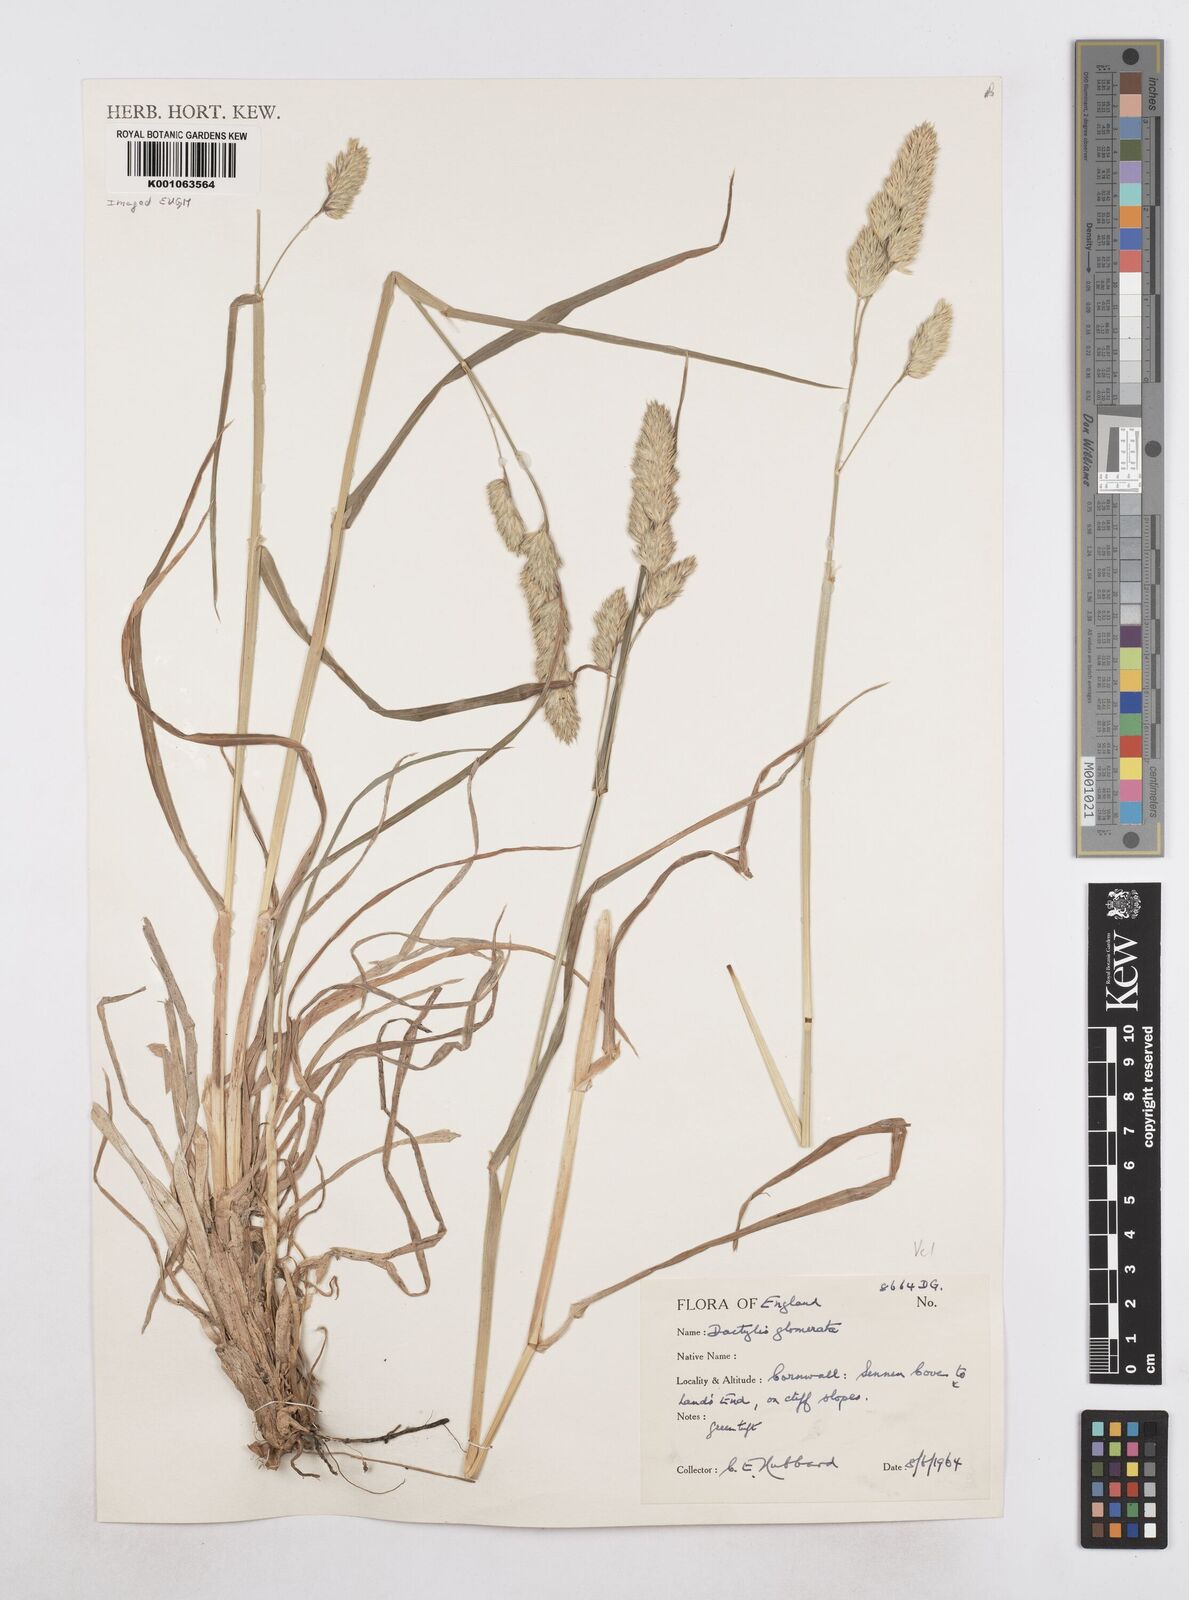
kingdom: Plantae
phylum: Tracheophyta
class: Liliopsida
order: Poales
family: Poaceae
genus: Dactylis
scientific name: Dactylis glomerata
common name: Orchardgrass
